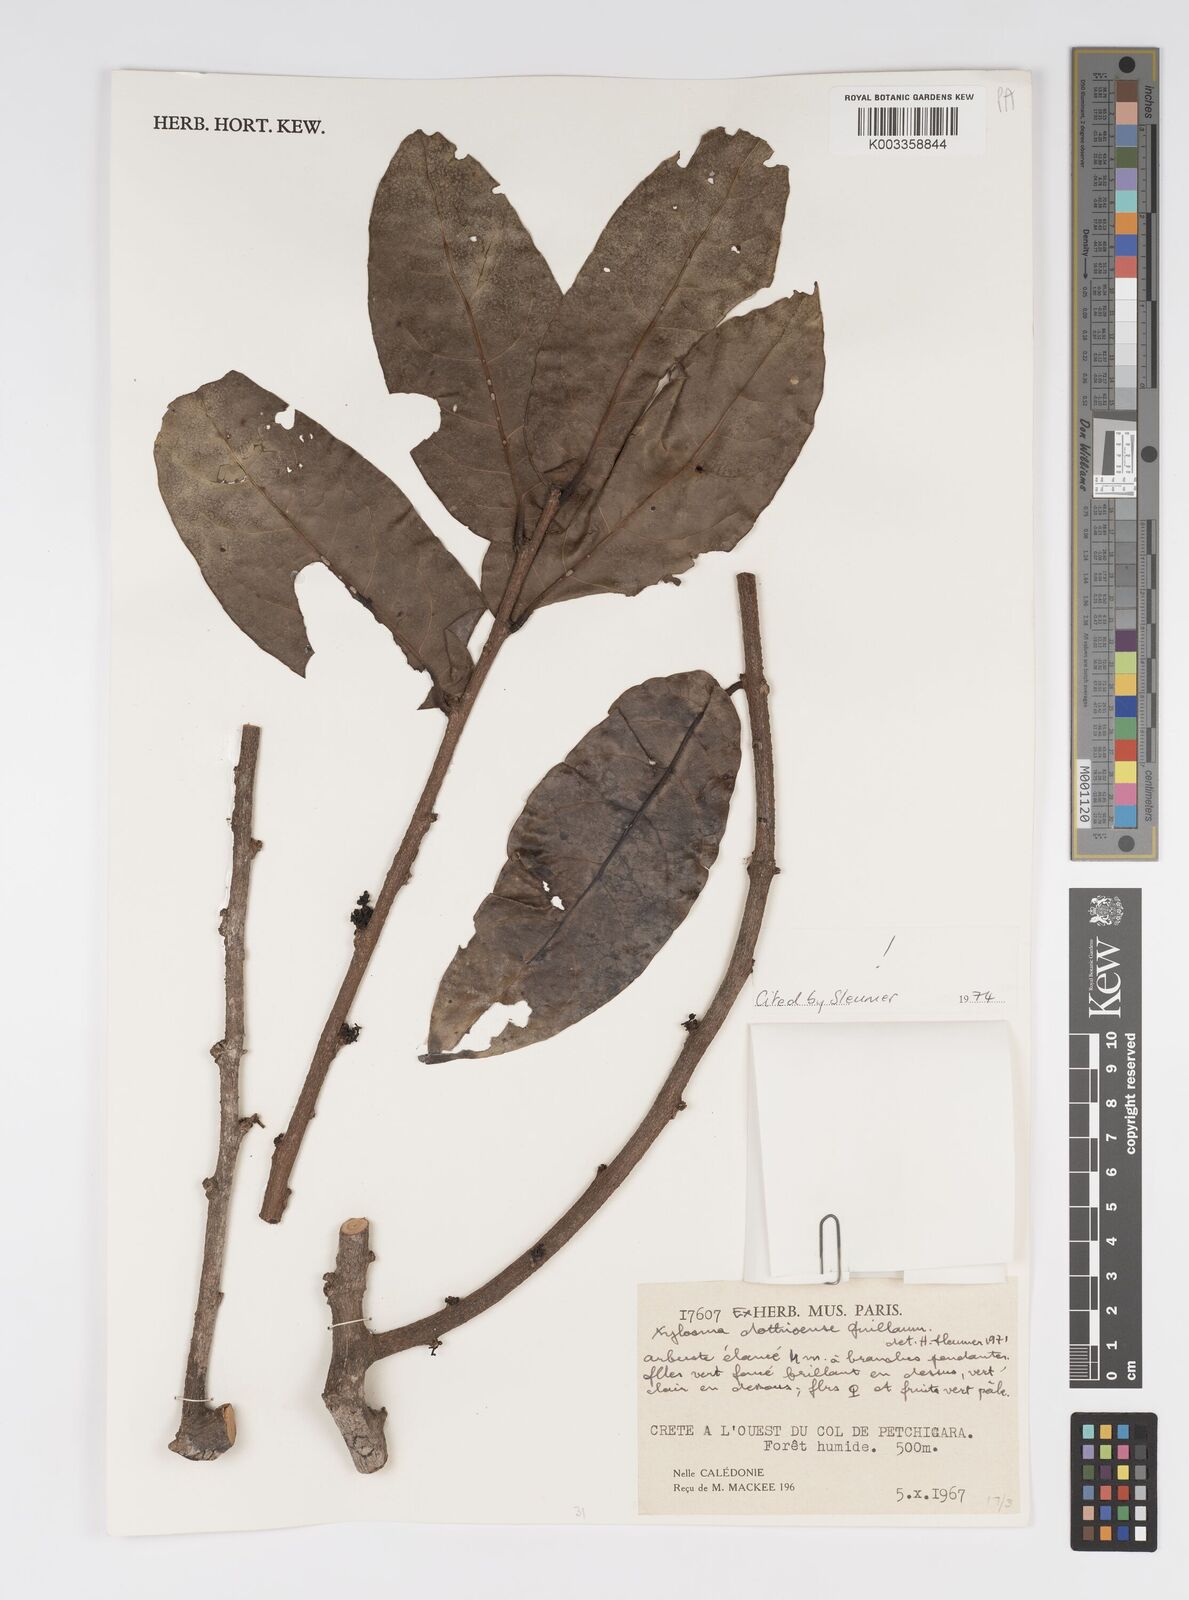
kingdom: Plantae
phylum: Tracheophyta
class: Magnoliopsida
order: Malpighiales
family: Salicaceae
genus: Xylosma
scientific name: Xylosma dothioensis
